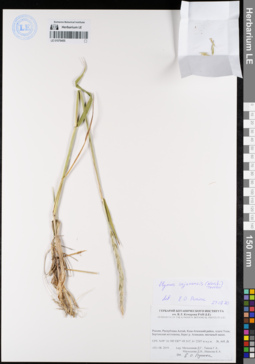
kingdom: Plantae
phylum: Tracheophyta
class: Liliopsida
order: Poales
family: Poaceae
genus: Elymus
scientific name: Elymus sajanensis
